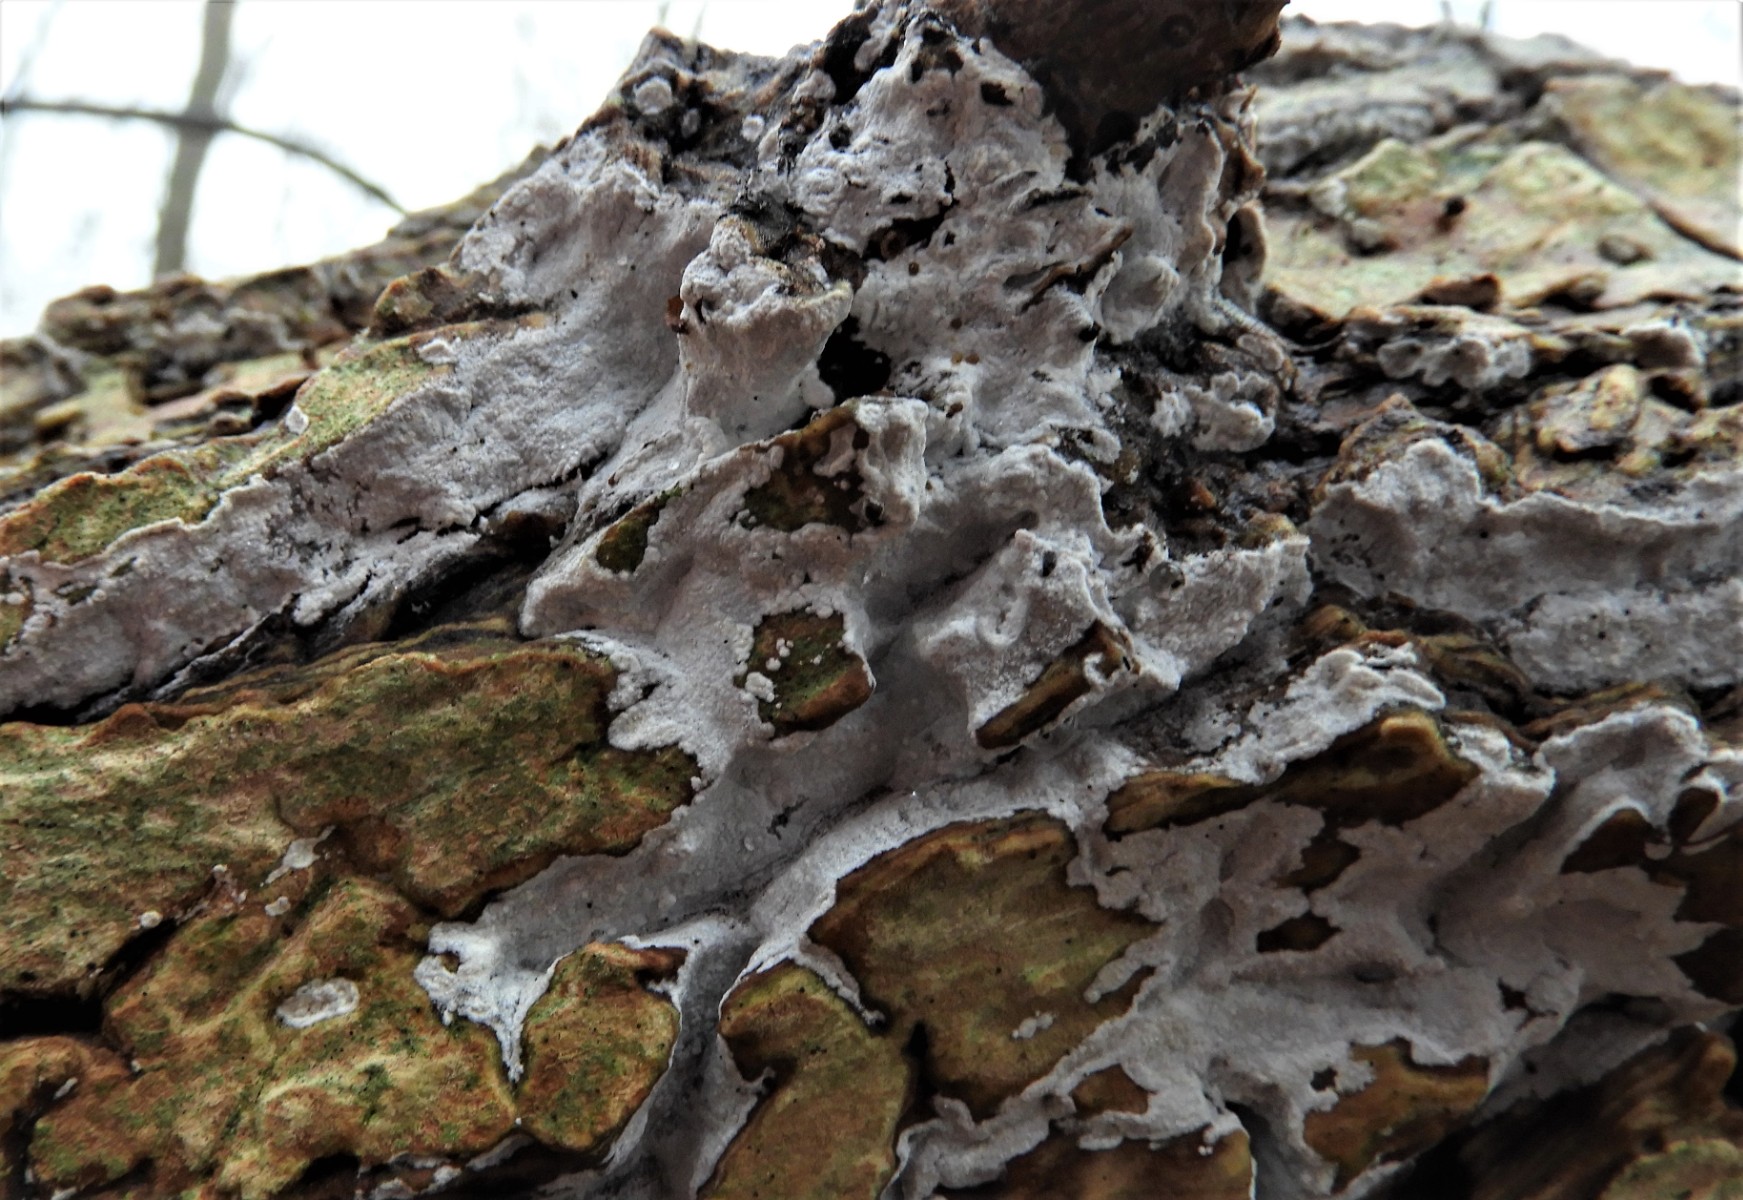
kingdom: Fungi
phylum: Basidiomycota
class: Agaricomycetes
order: Corticiales
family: Corticiaceae
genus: Lyomyces
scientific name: Lyomyces sambuci
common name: almindelig hyldehinde
